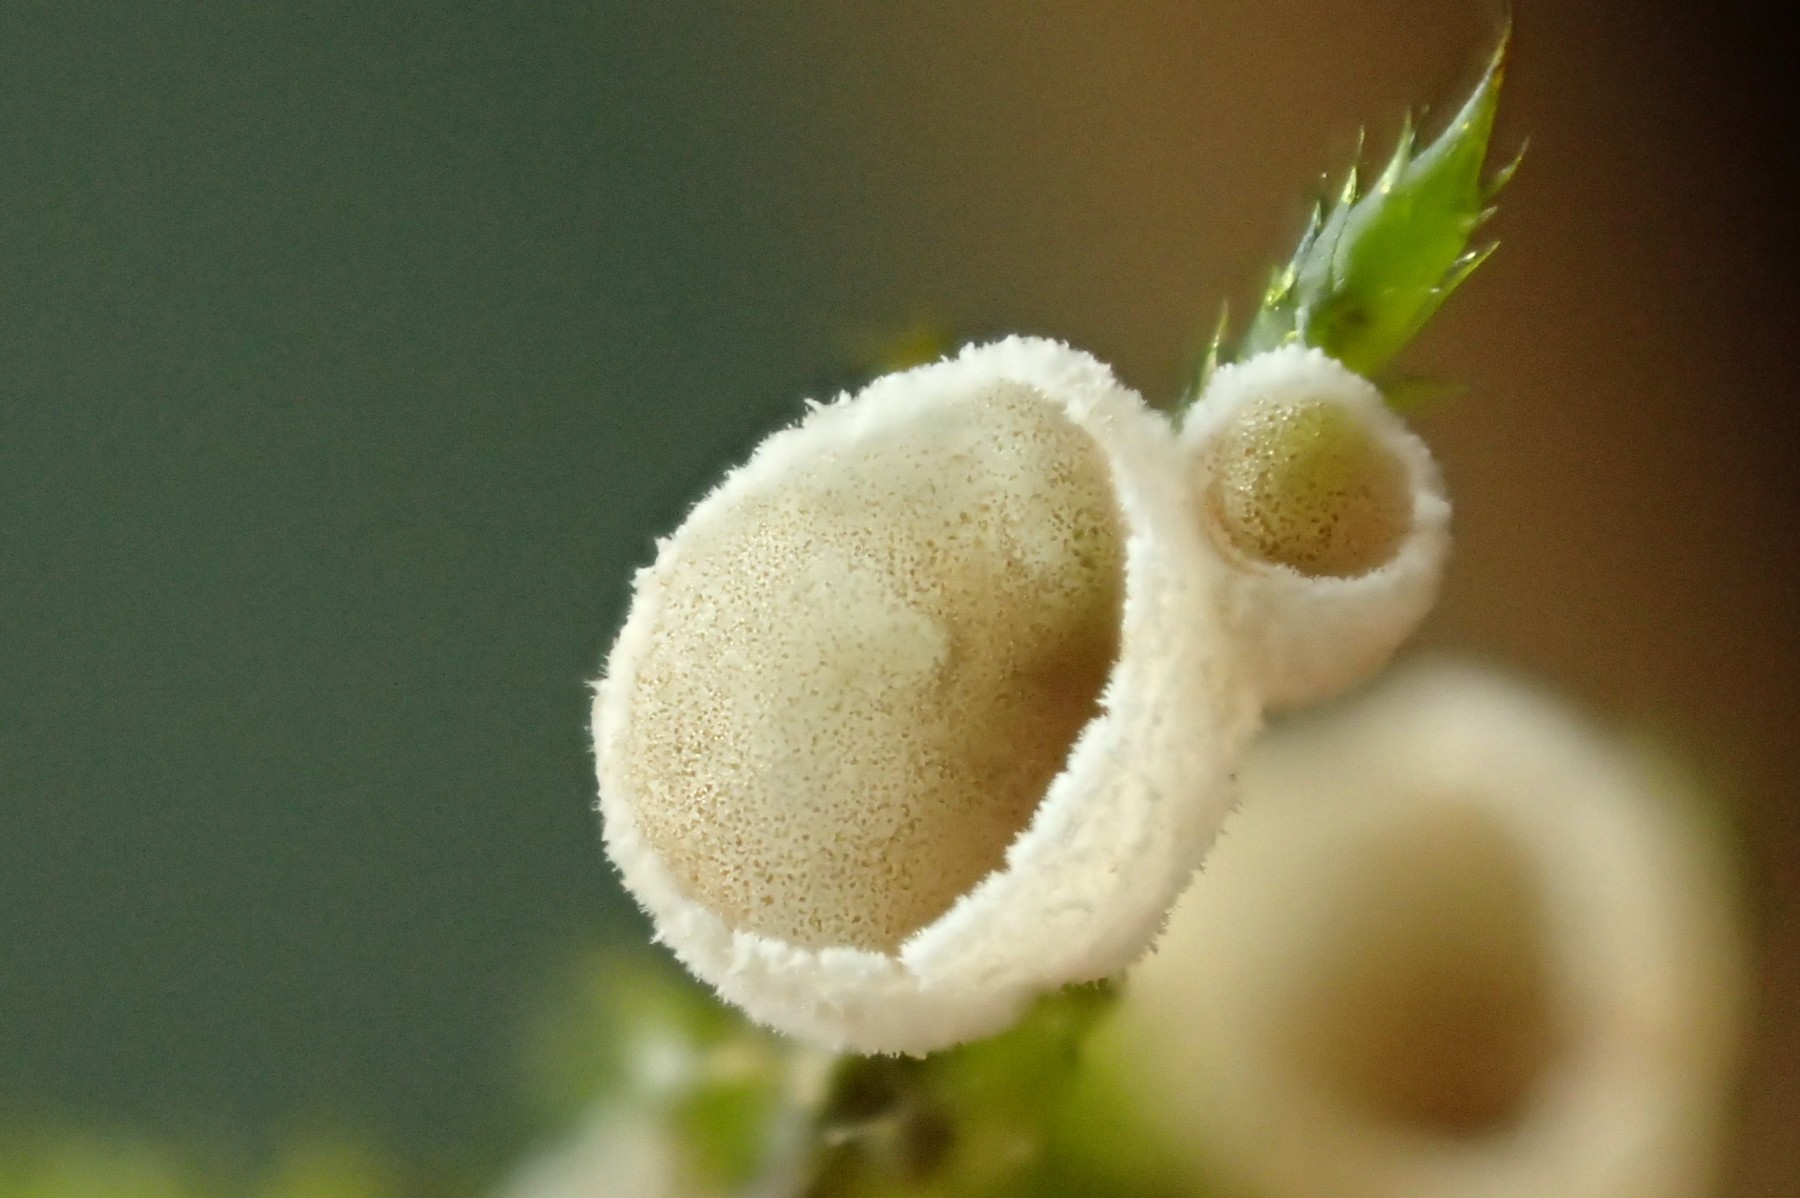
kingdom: Fungi
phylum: Basidiomycota
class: Agaricomycetes
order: Agaricales
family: Chromocyphellaceae
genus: Chromocyphella
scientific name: Chromocyphella muscicola
